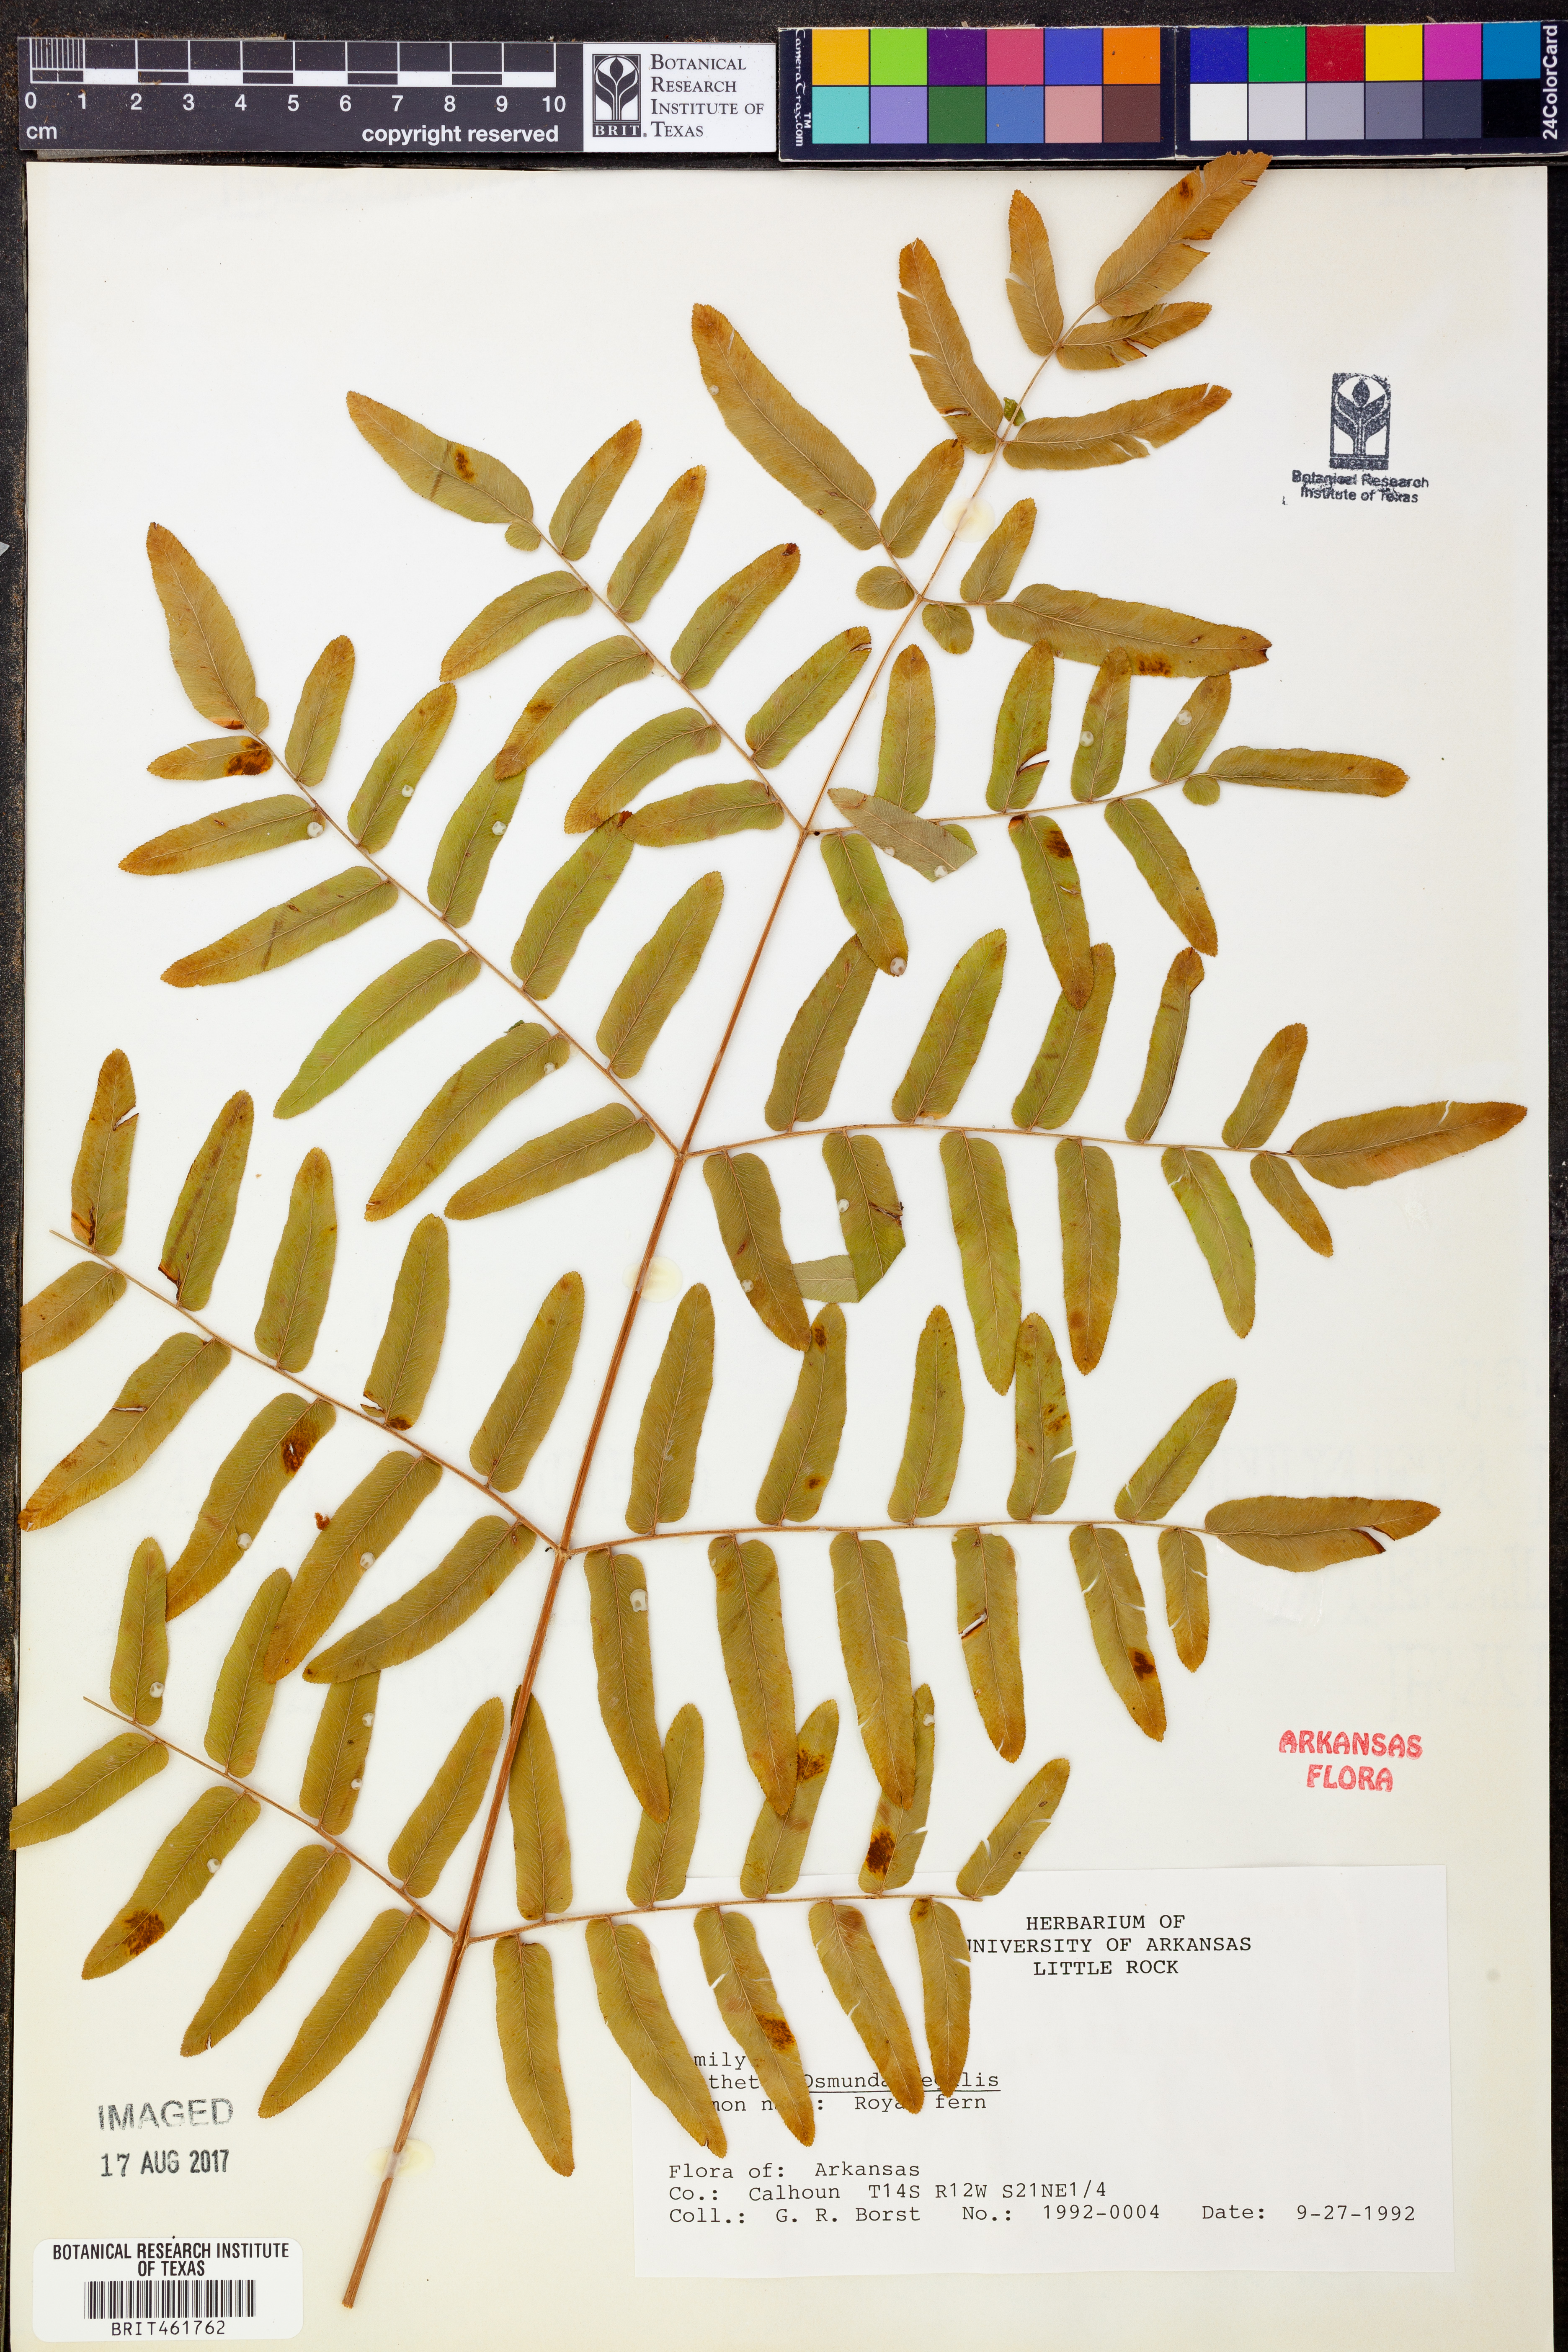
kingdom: Plantae
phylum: Tracheophyta
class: Polypodiopsida
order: Osmundales
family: Osmundaceae
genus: Osmunda
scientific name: Osmunda regalis
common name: Royal fern
